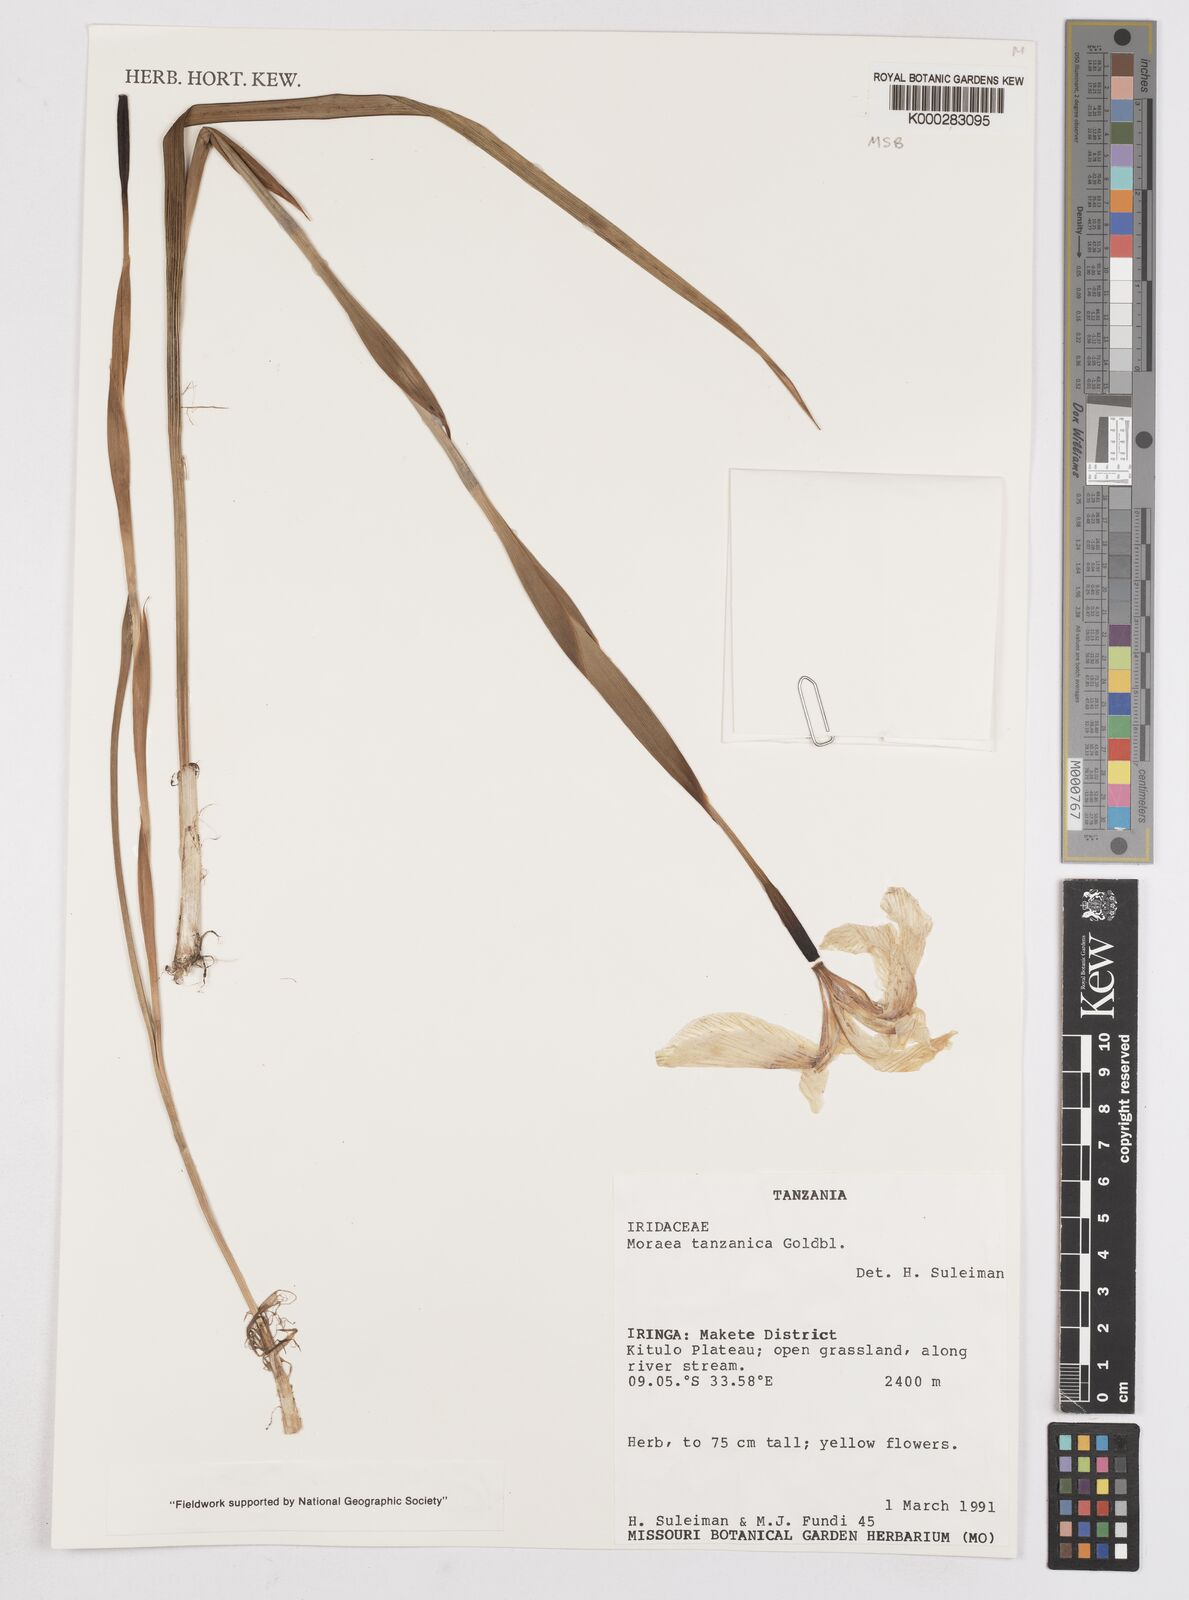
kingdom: Plantae
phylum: Tracheophyta
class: Liliopsida
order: Asparagales
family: Iridaceae
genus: Moraea
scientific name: Moraea tanzanica
